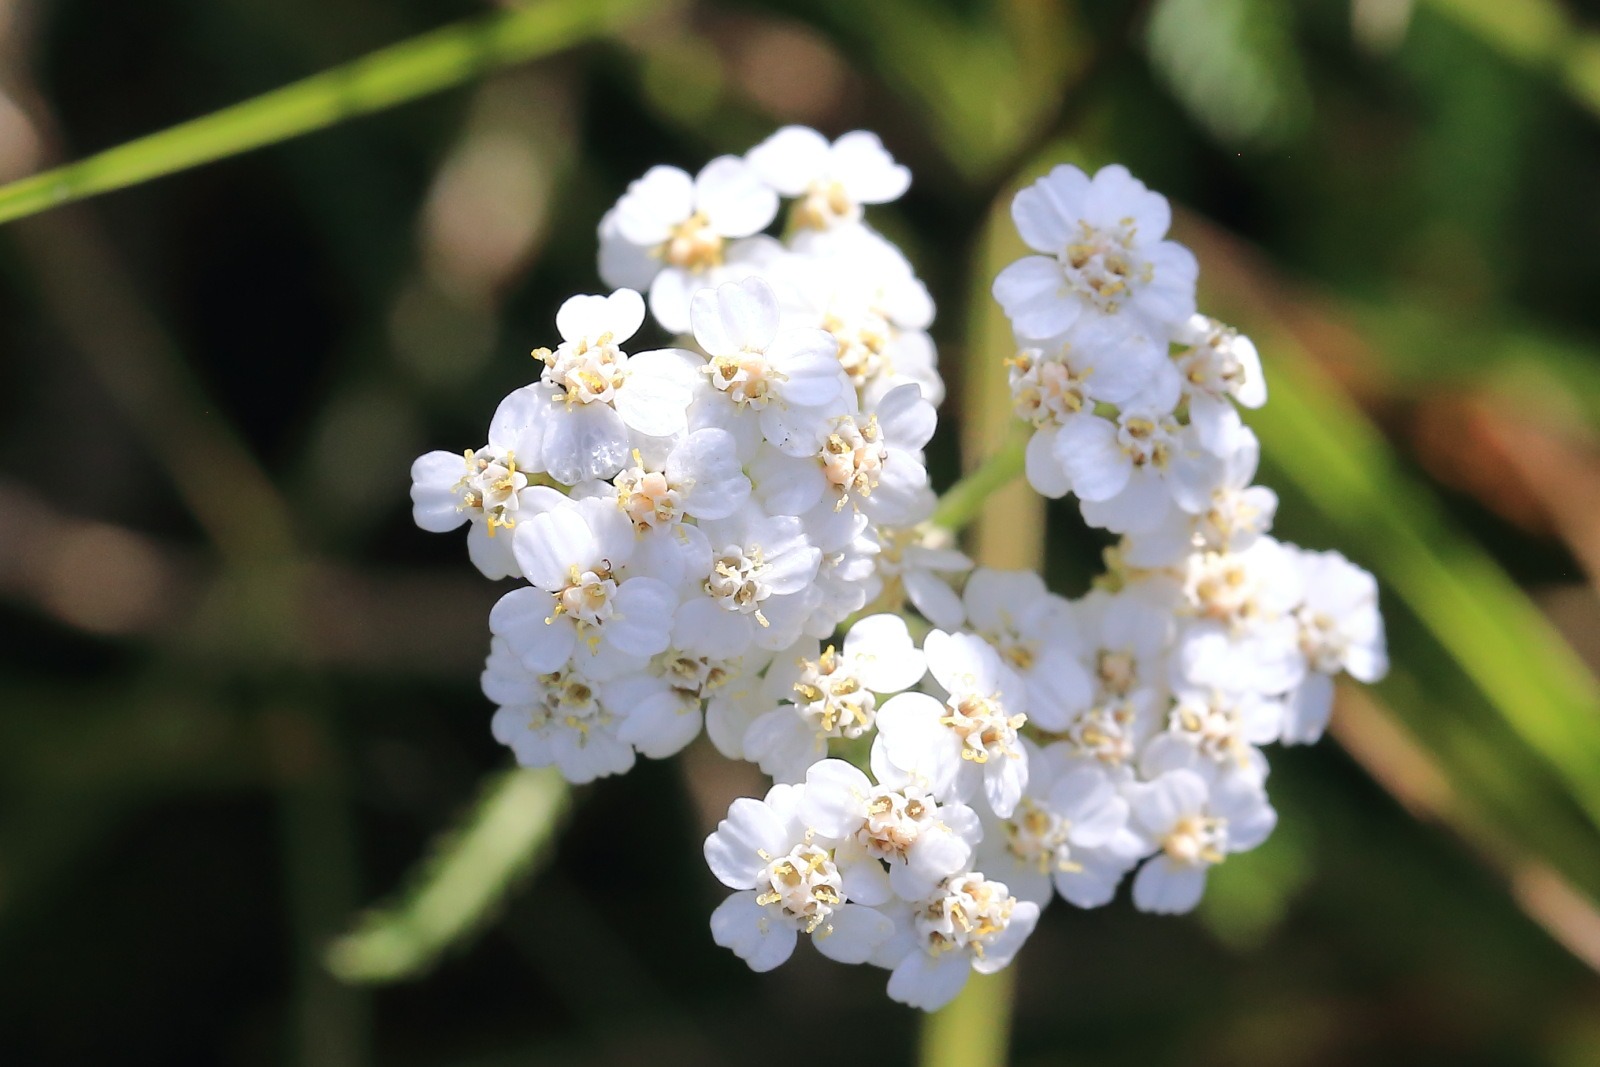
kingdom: Plantae
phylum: Tracheophyta
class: Magnoliopsida
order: Asterales
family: Asteraceae
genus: Achillea
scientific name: Achillea millefolium
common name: Almindelig røllike
